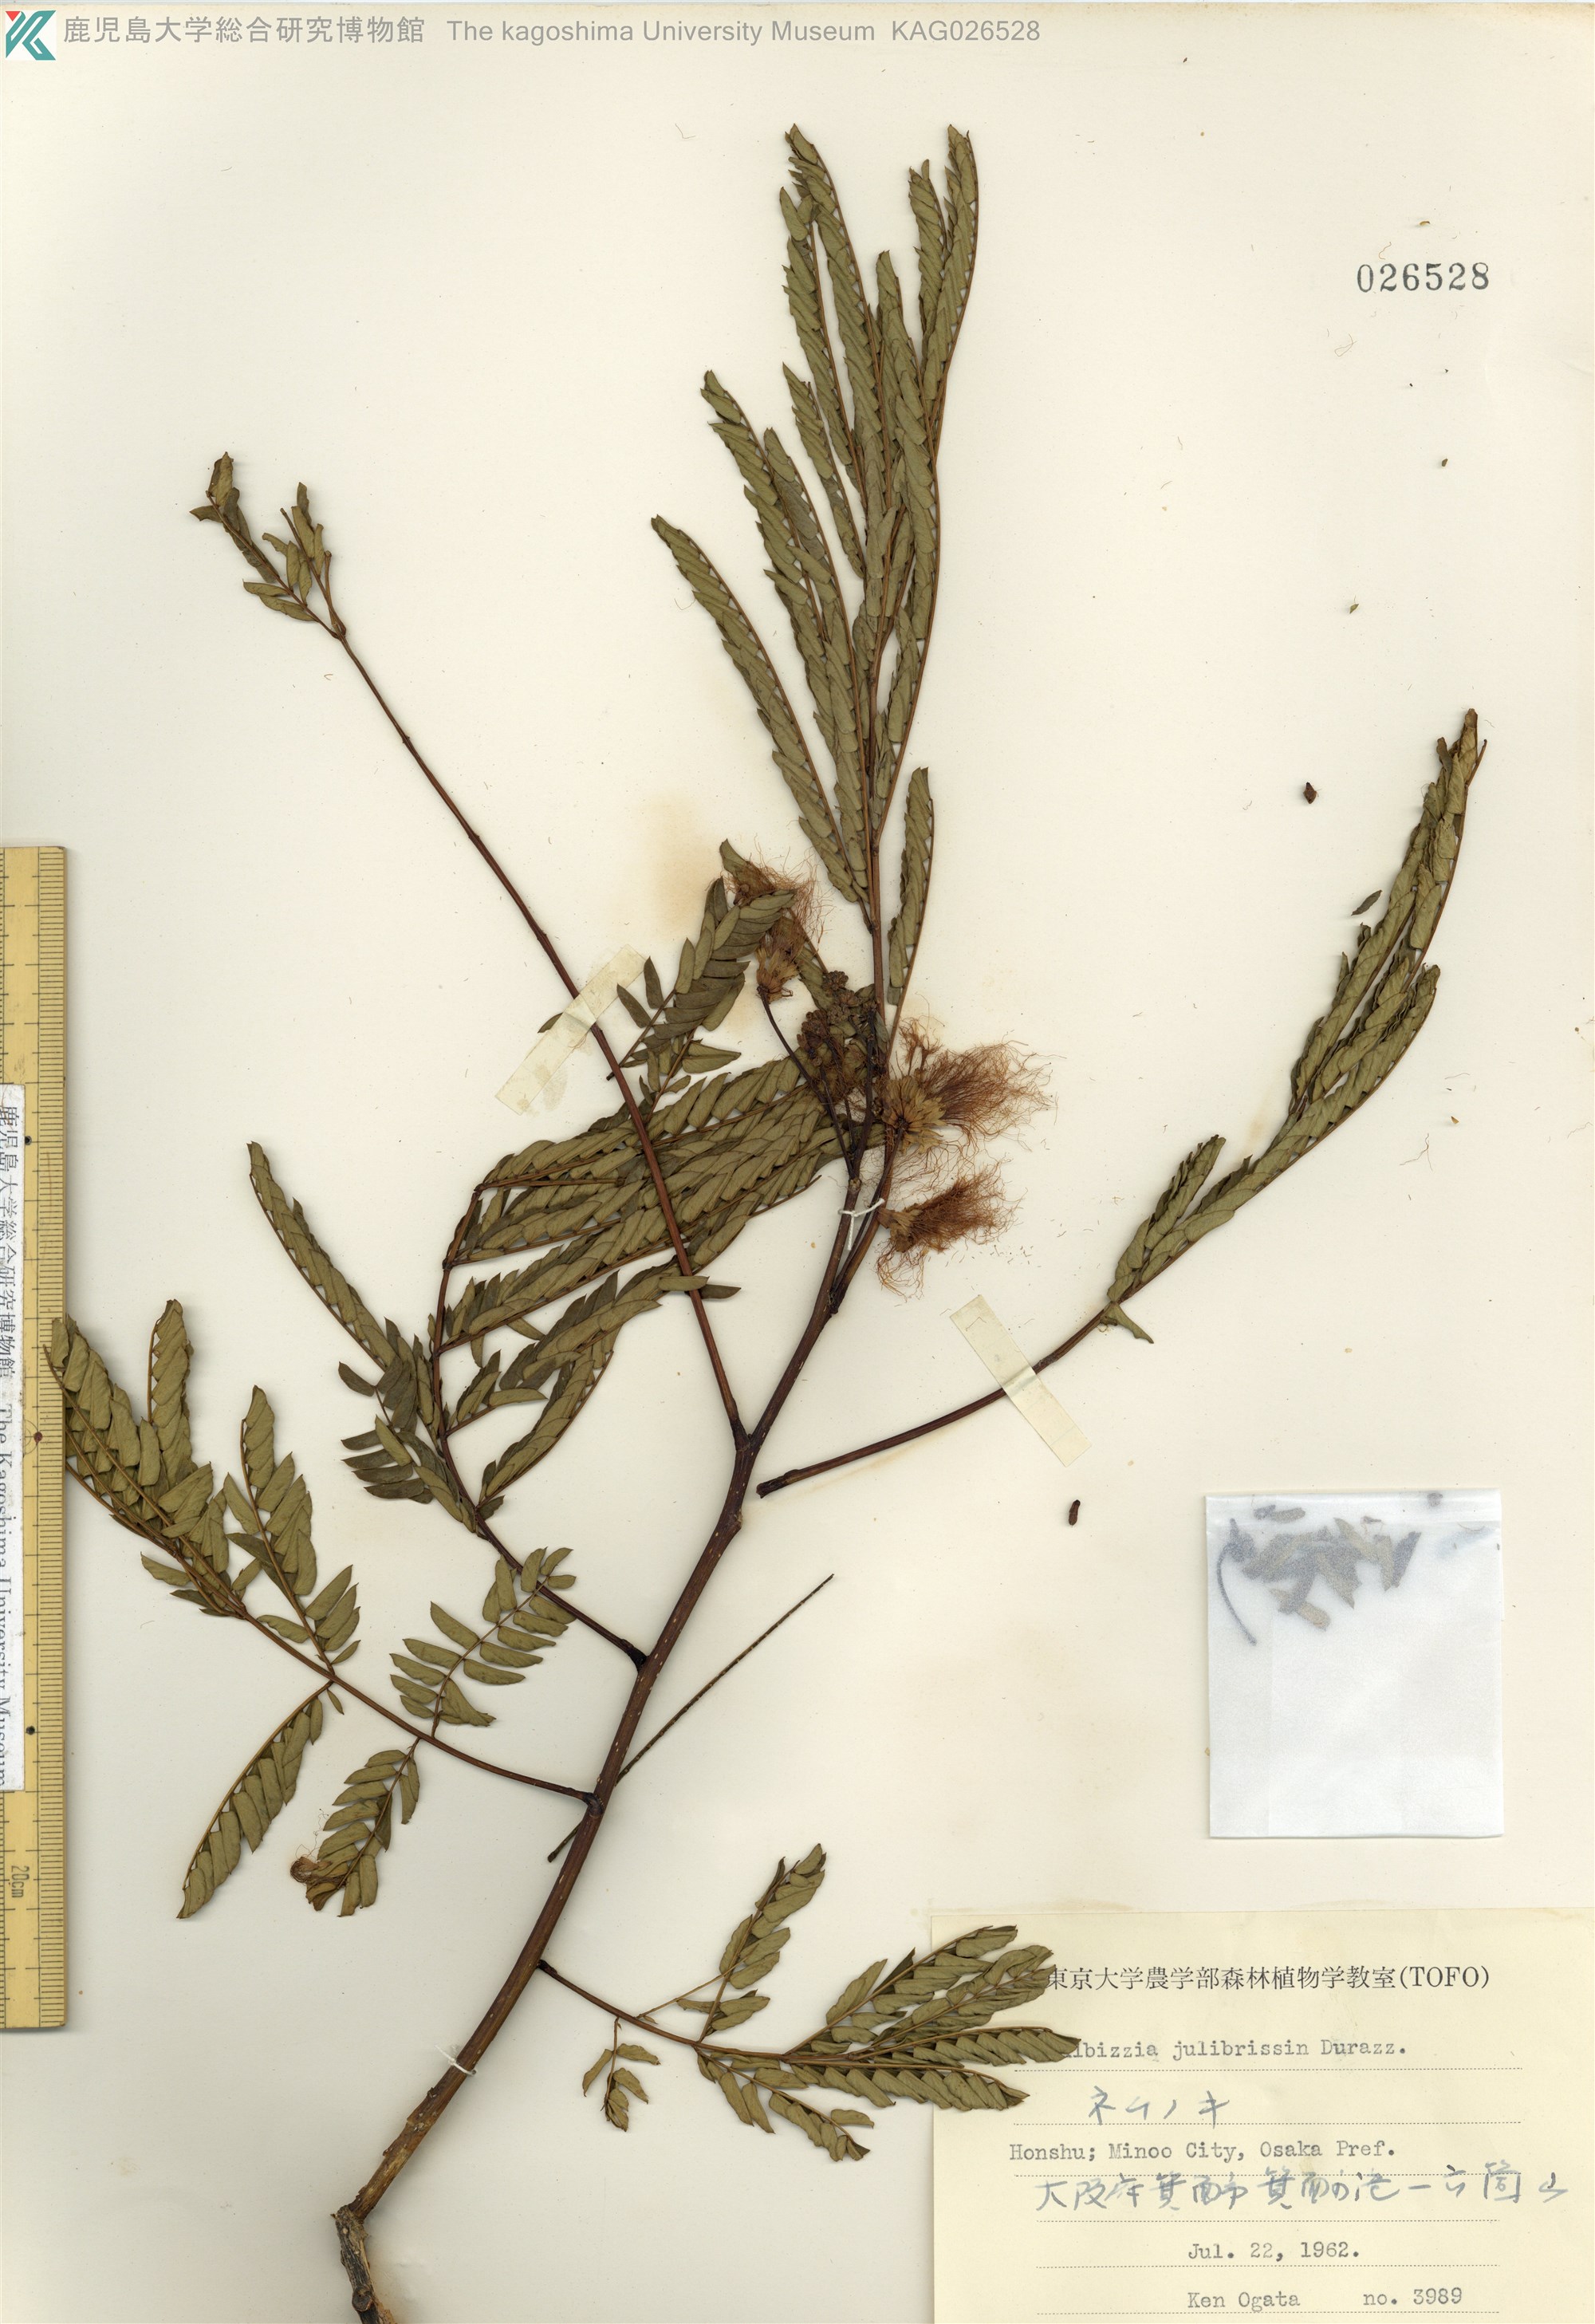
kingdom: Plantae
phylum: Tracheophyta
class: Magnoliopsida
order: Fabales
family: Fabaceae
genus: Albizia
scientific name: Albizia julibrissin
